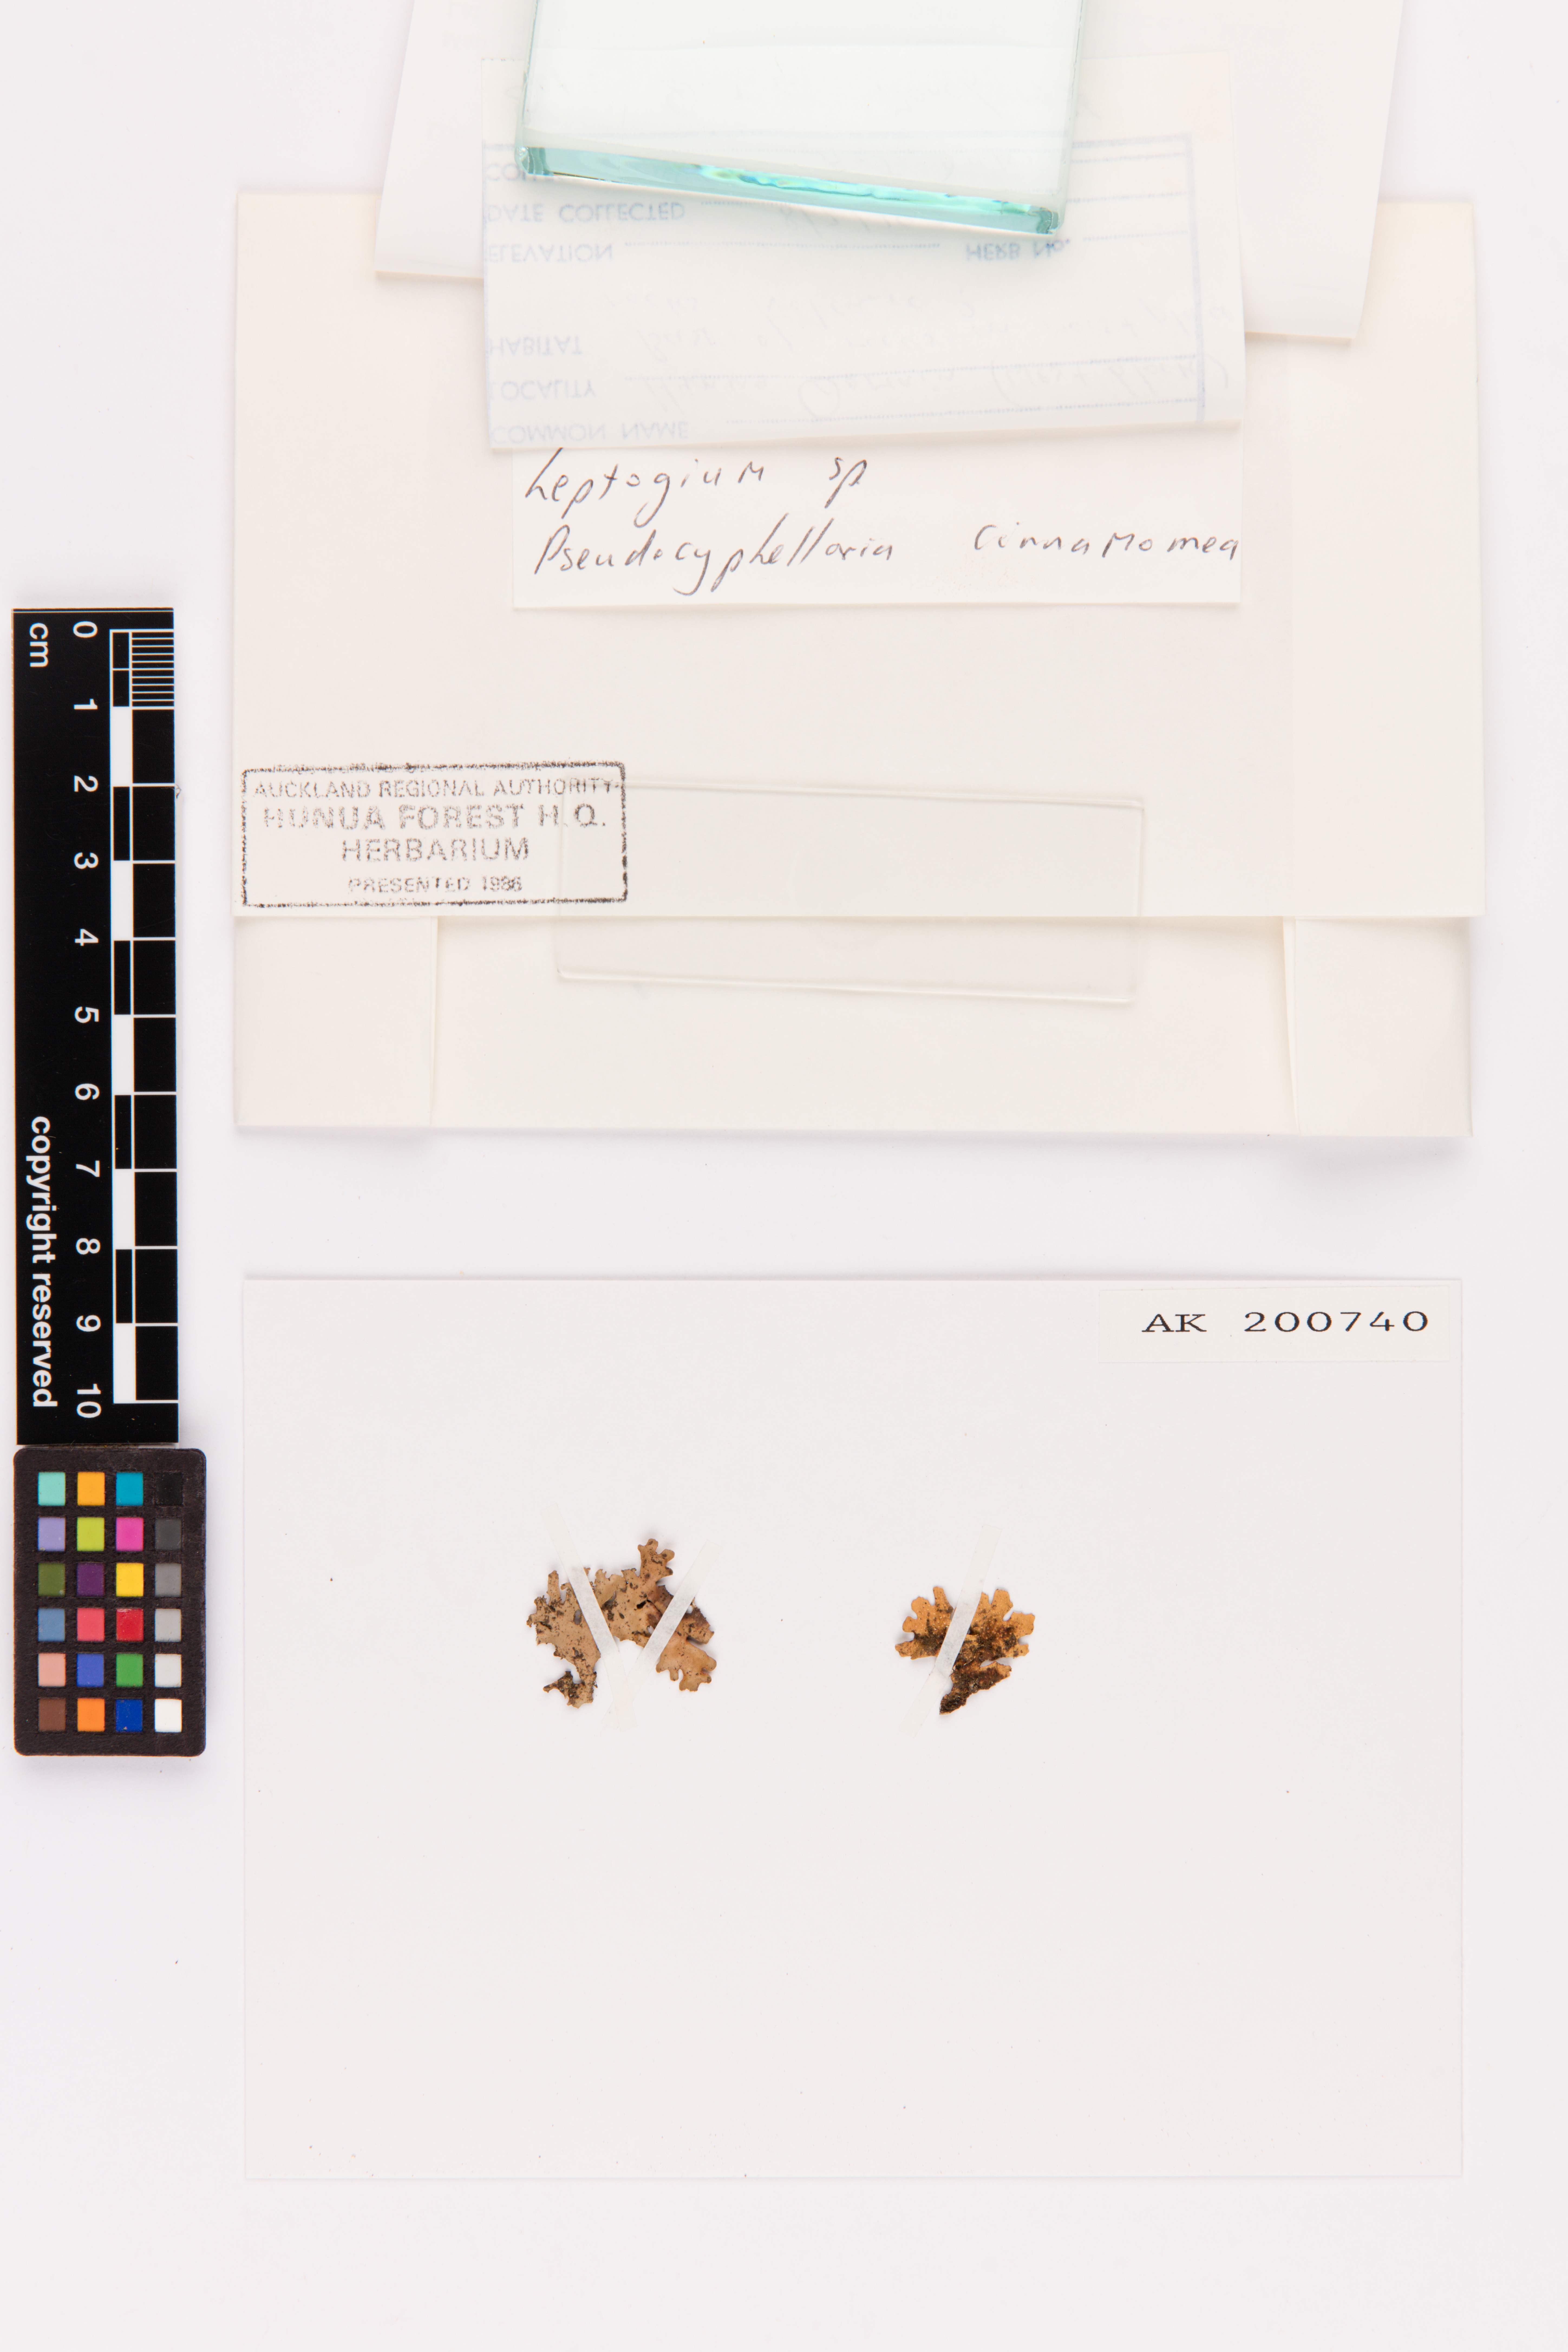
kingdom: Fungi
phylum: Ascomycota
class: Lecanoromycetes
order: Peltigerales
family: Lobariaceae
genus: Pseudocyphellaria
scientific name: Pseudocyphellaria cinnamomea
